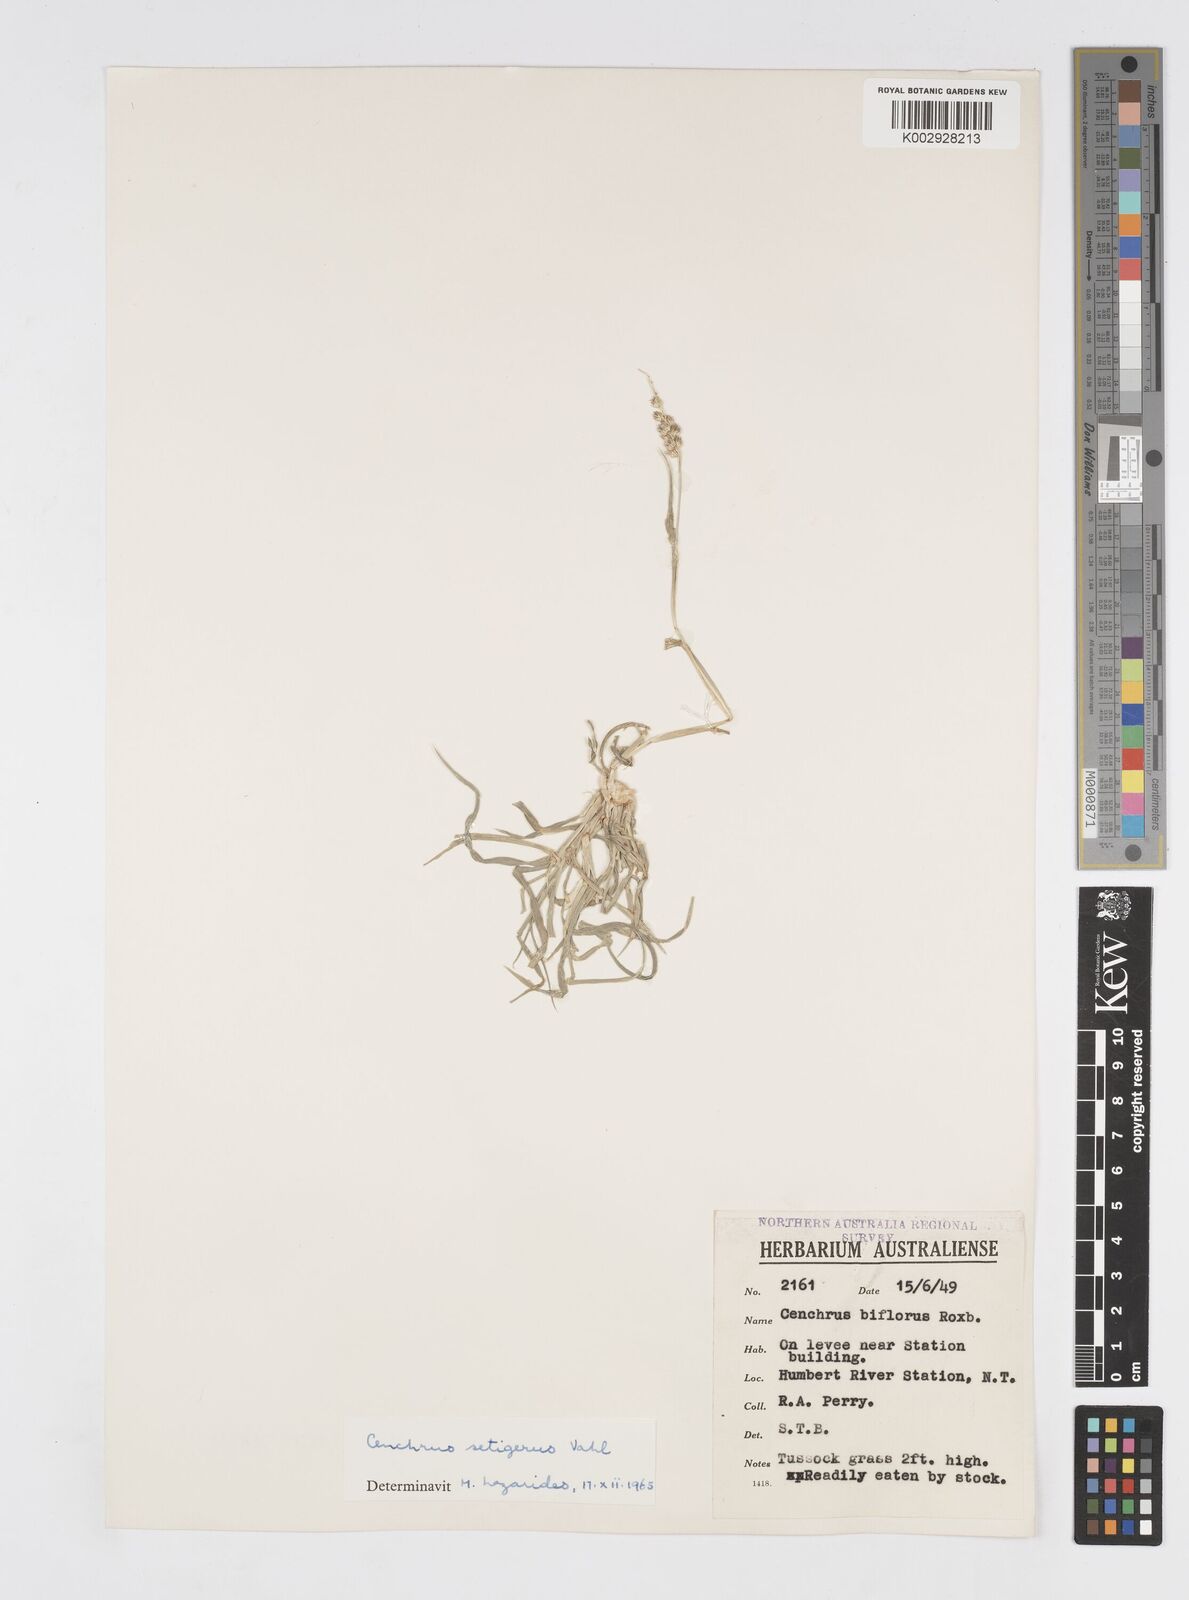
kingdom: Plantae
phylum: Tracheophyta
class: Liliopsida
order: Poales
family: Poaceae
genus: Cenchrus
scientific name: Cenchrus setigerus
